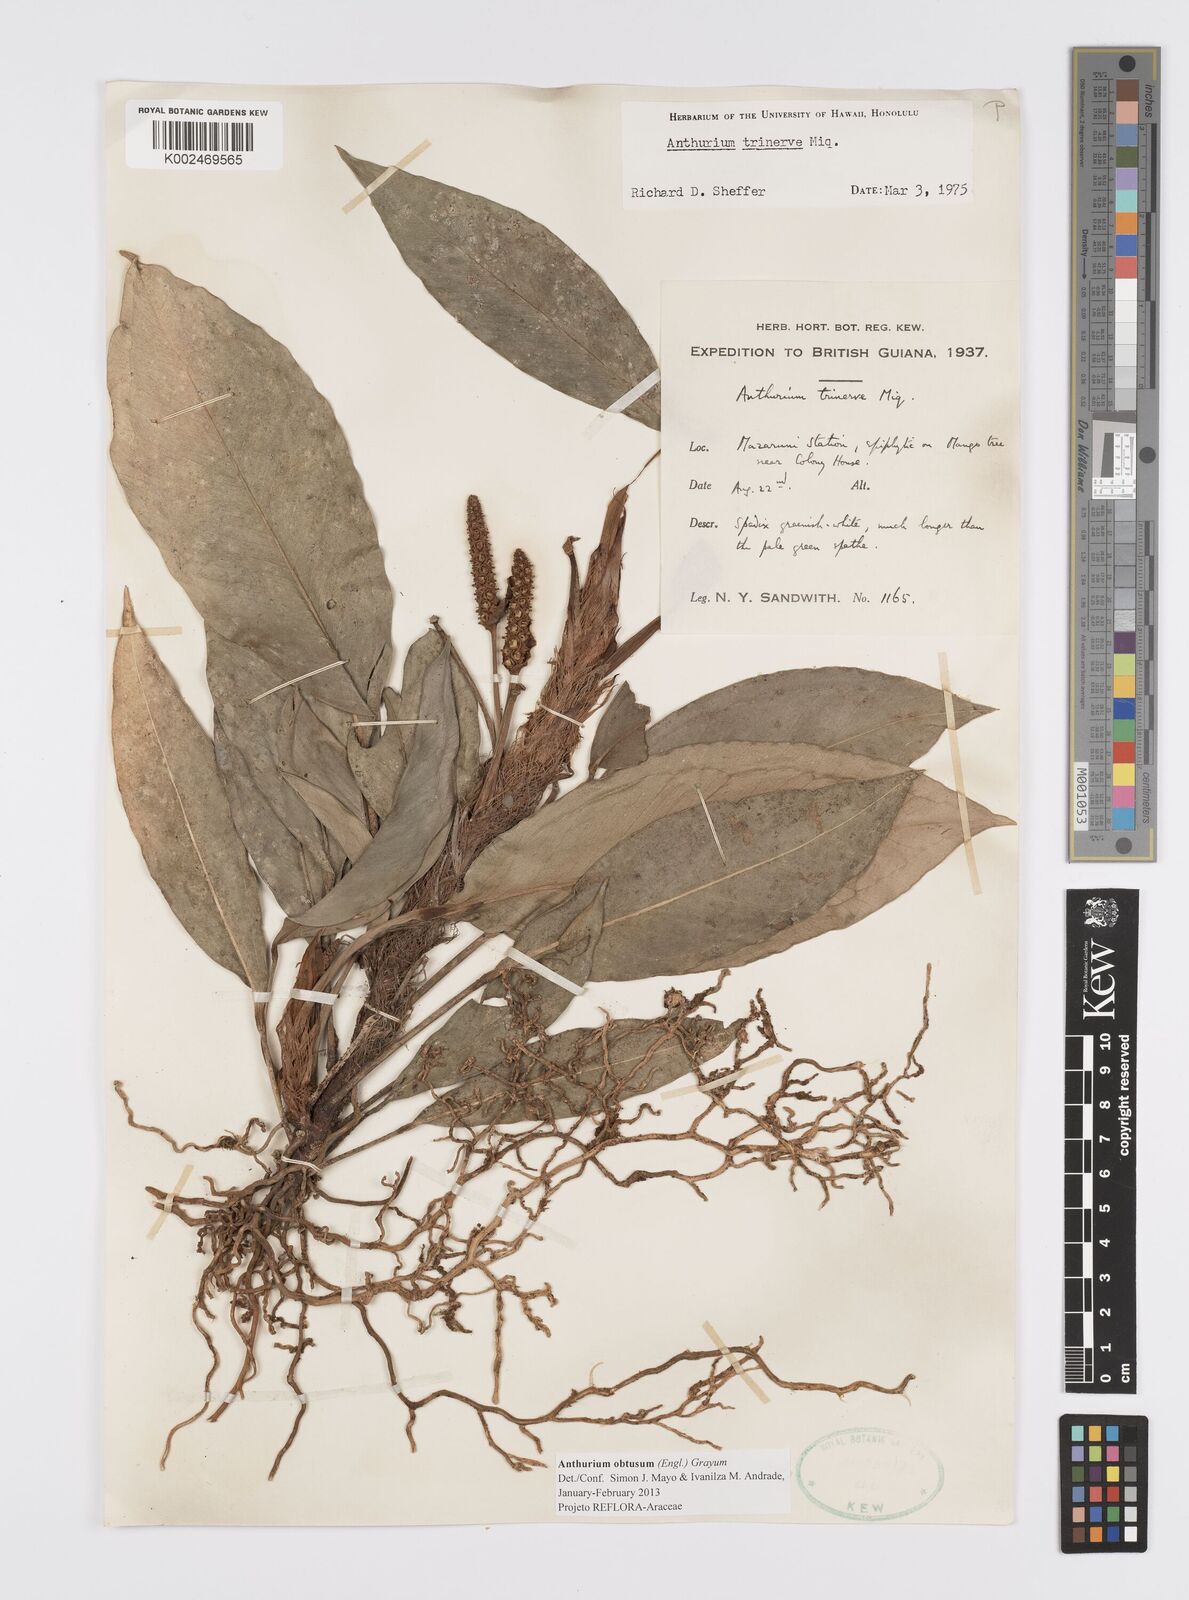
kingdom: Plantae
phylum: Tracheophyta
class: Liliopsida
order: Alismatales
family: Araceae
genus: Anthurium
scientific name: Anthurium obtusum
